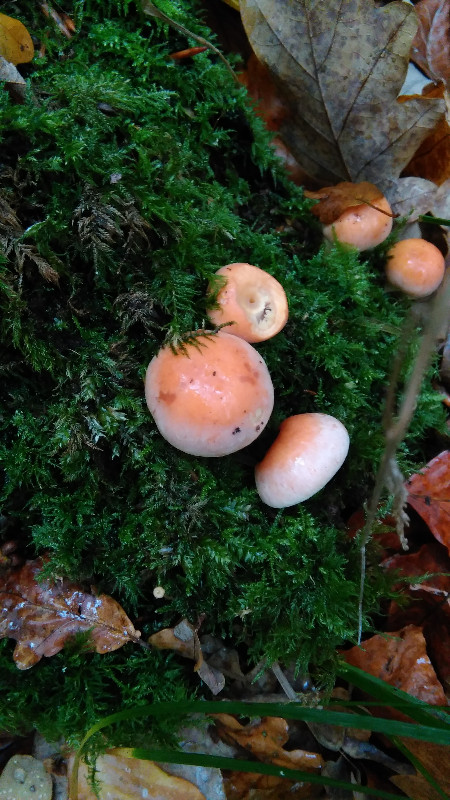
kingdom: Fungi
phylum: Basidiomycota
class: Agaricomycetes
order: Agaricales
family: Strophariaceae
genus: Hypholoma
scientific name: Hypholoma lateritium
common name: teglrød svovlhat
